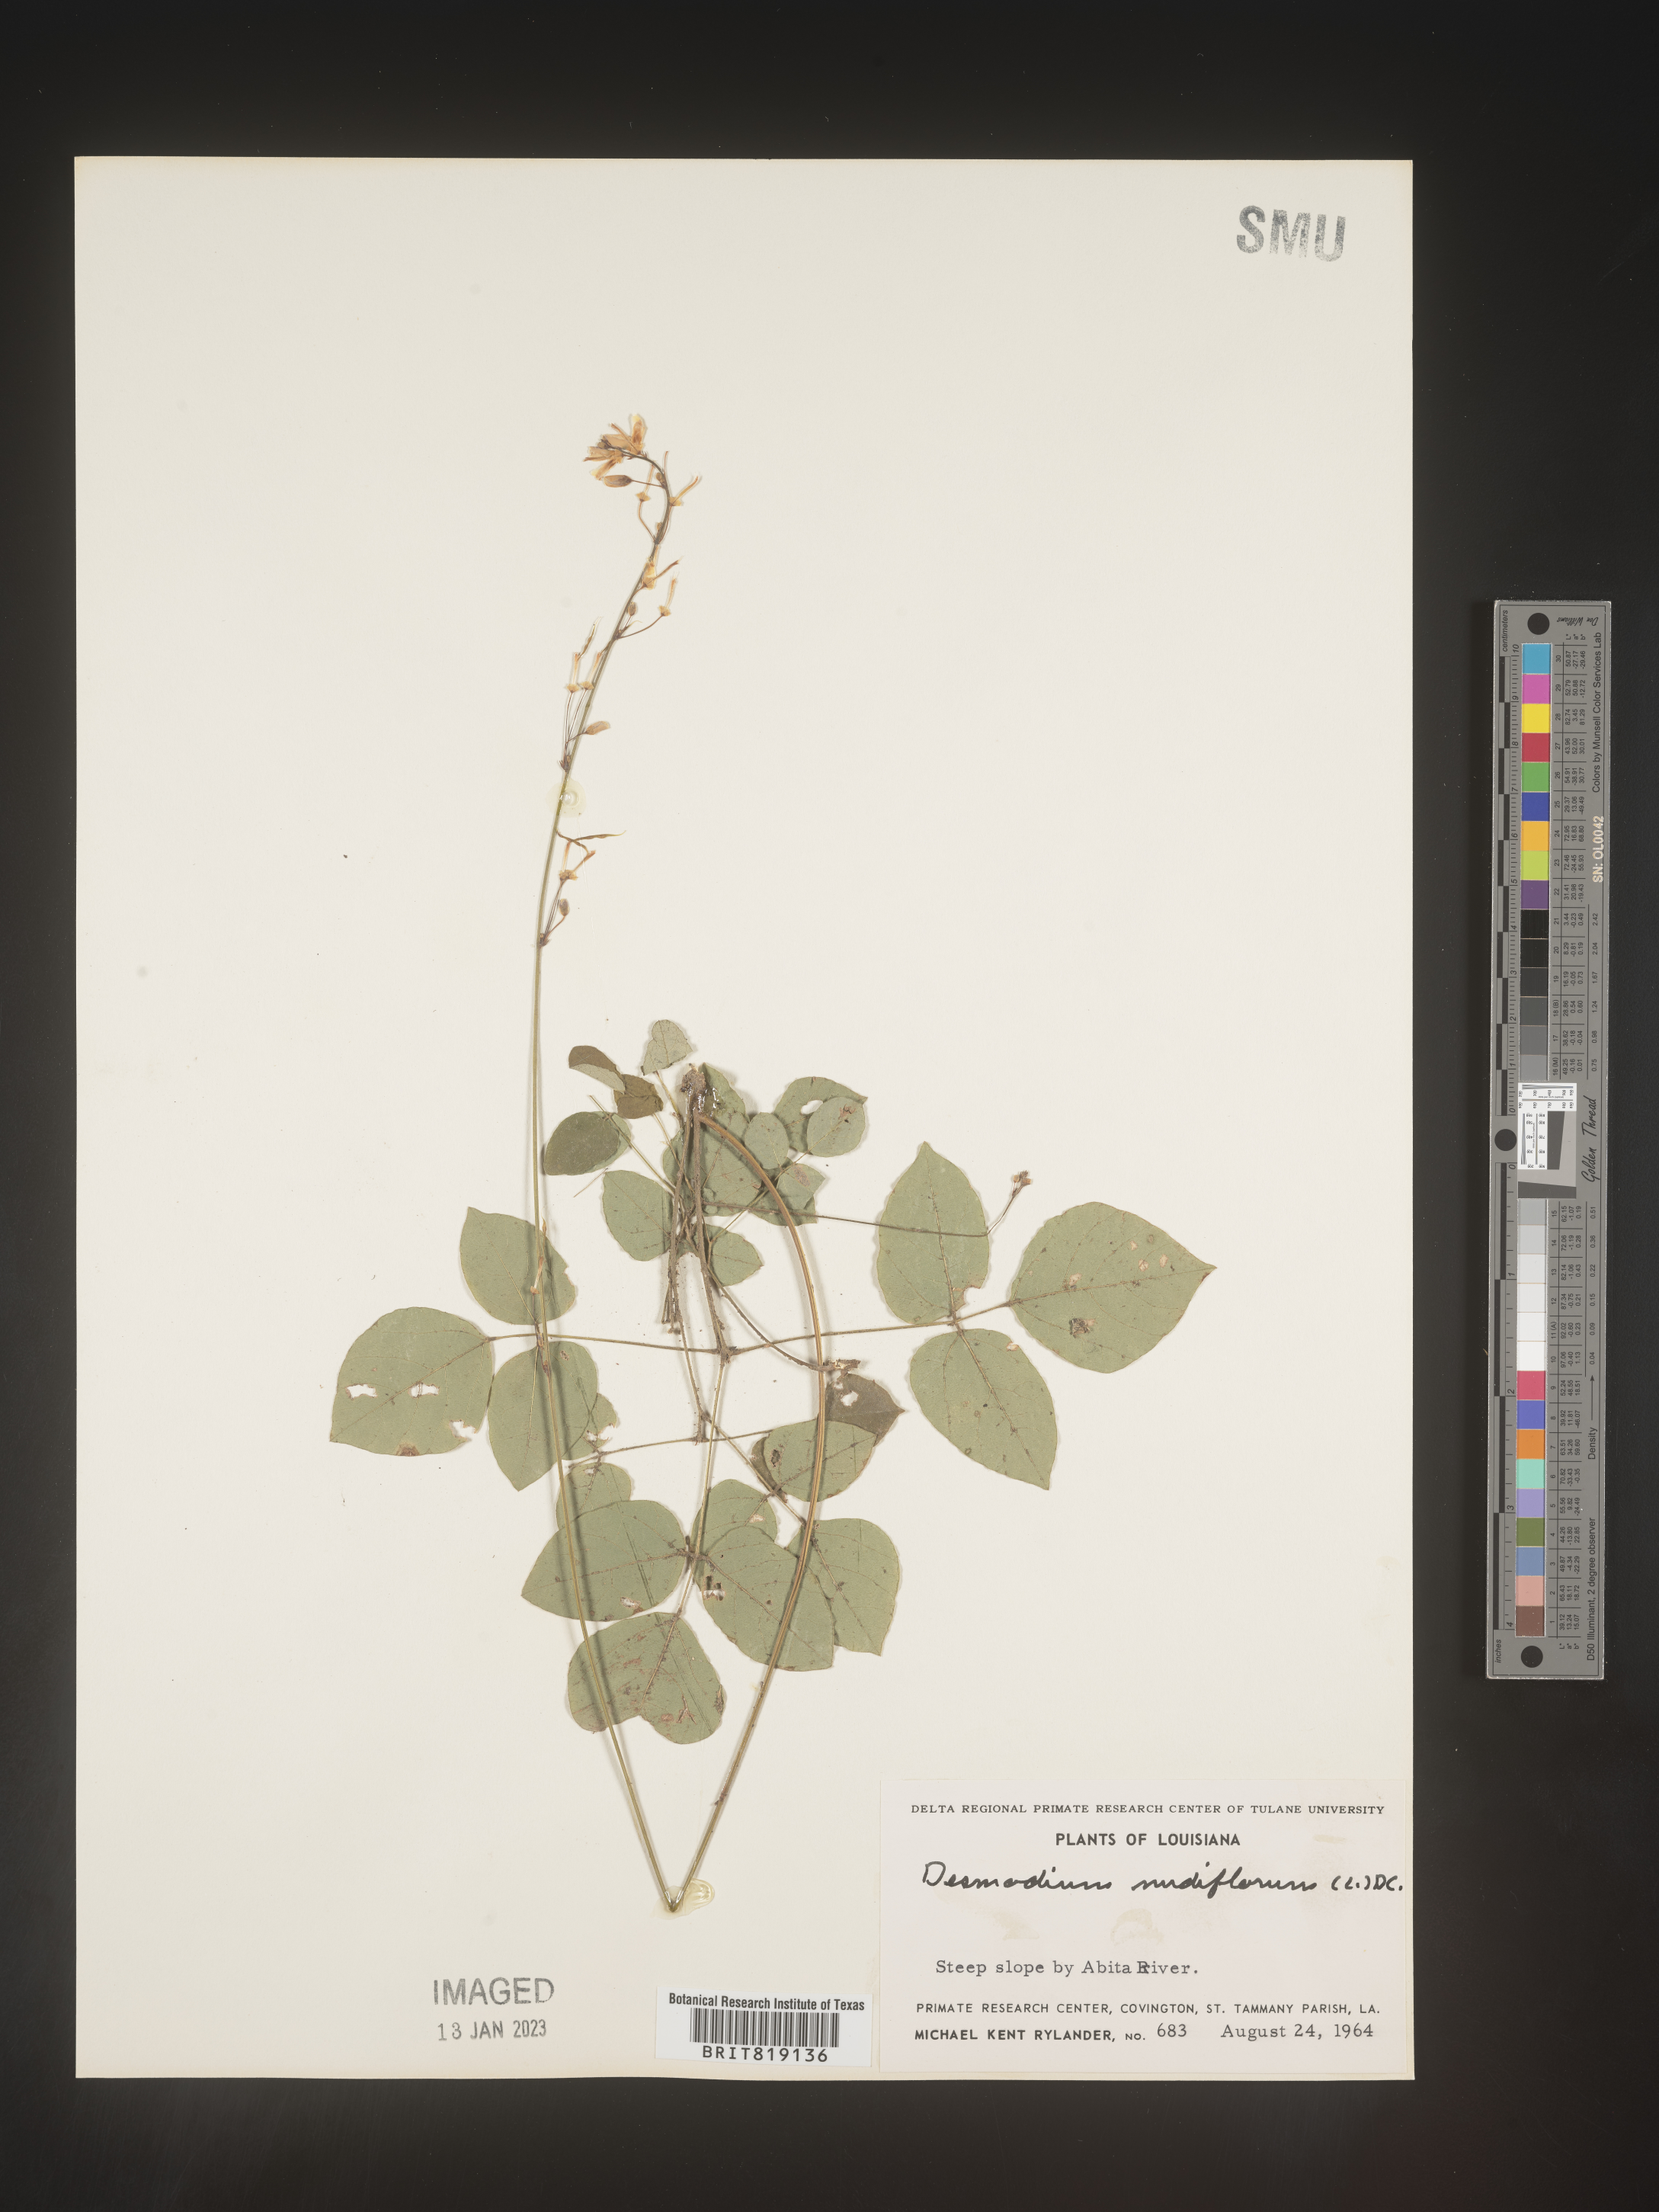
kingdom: Plantae
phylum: Tracheophyta
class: Magnoliopsida
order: Fabales
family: Fabaceae
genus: Hylodesmum
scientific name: Hylodesmum nudiflorum
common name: Bare-stemmed tick-trefoil
